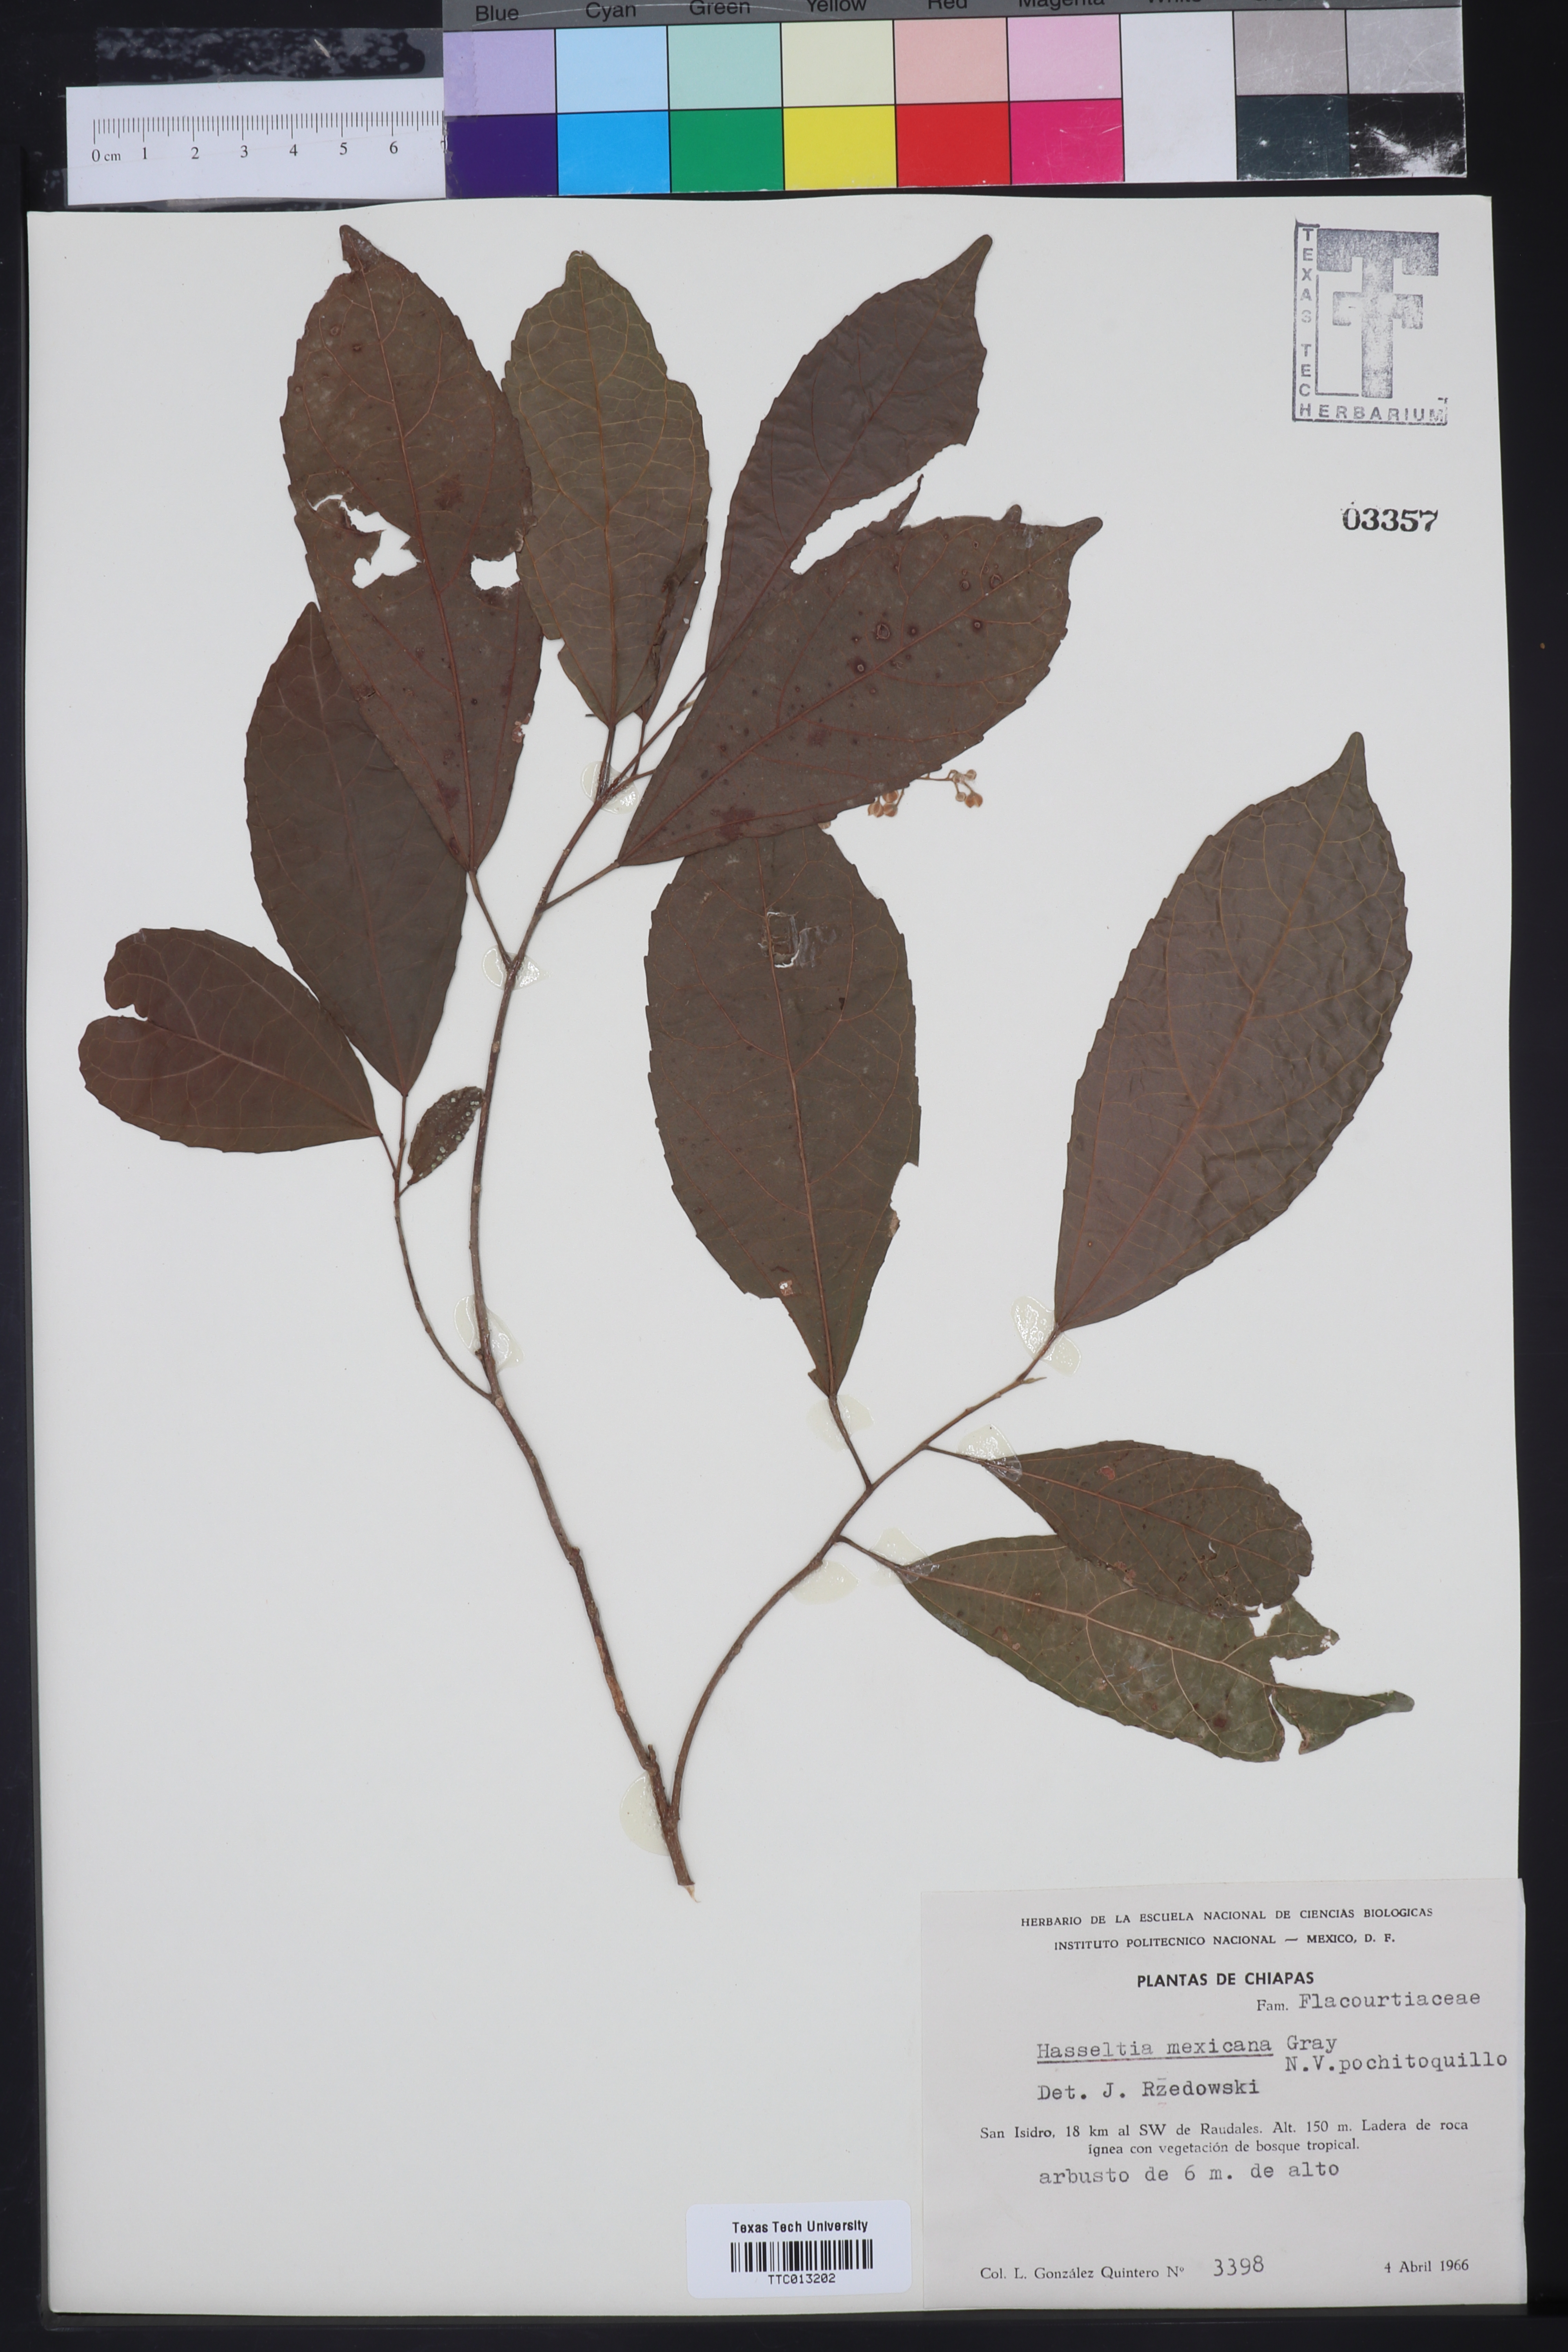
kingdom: Plantae
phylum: Tracheophyta
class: Magnoliopsida
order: Malpighiales
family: Salicaceae
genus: Pleuranthodendron
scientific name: Pleuranthodendron lindenii
